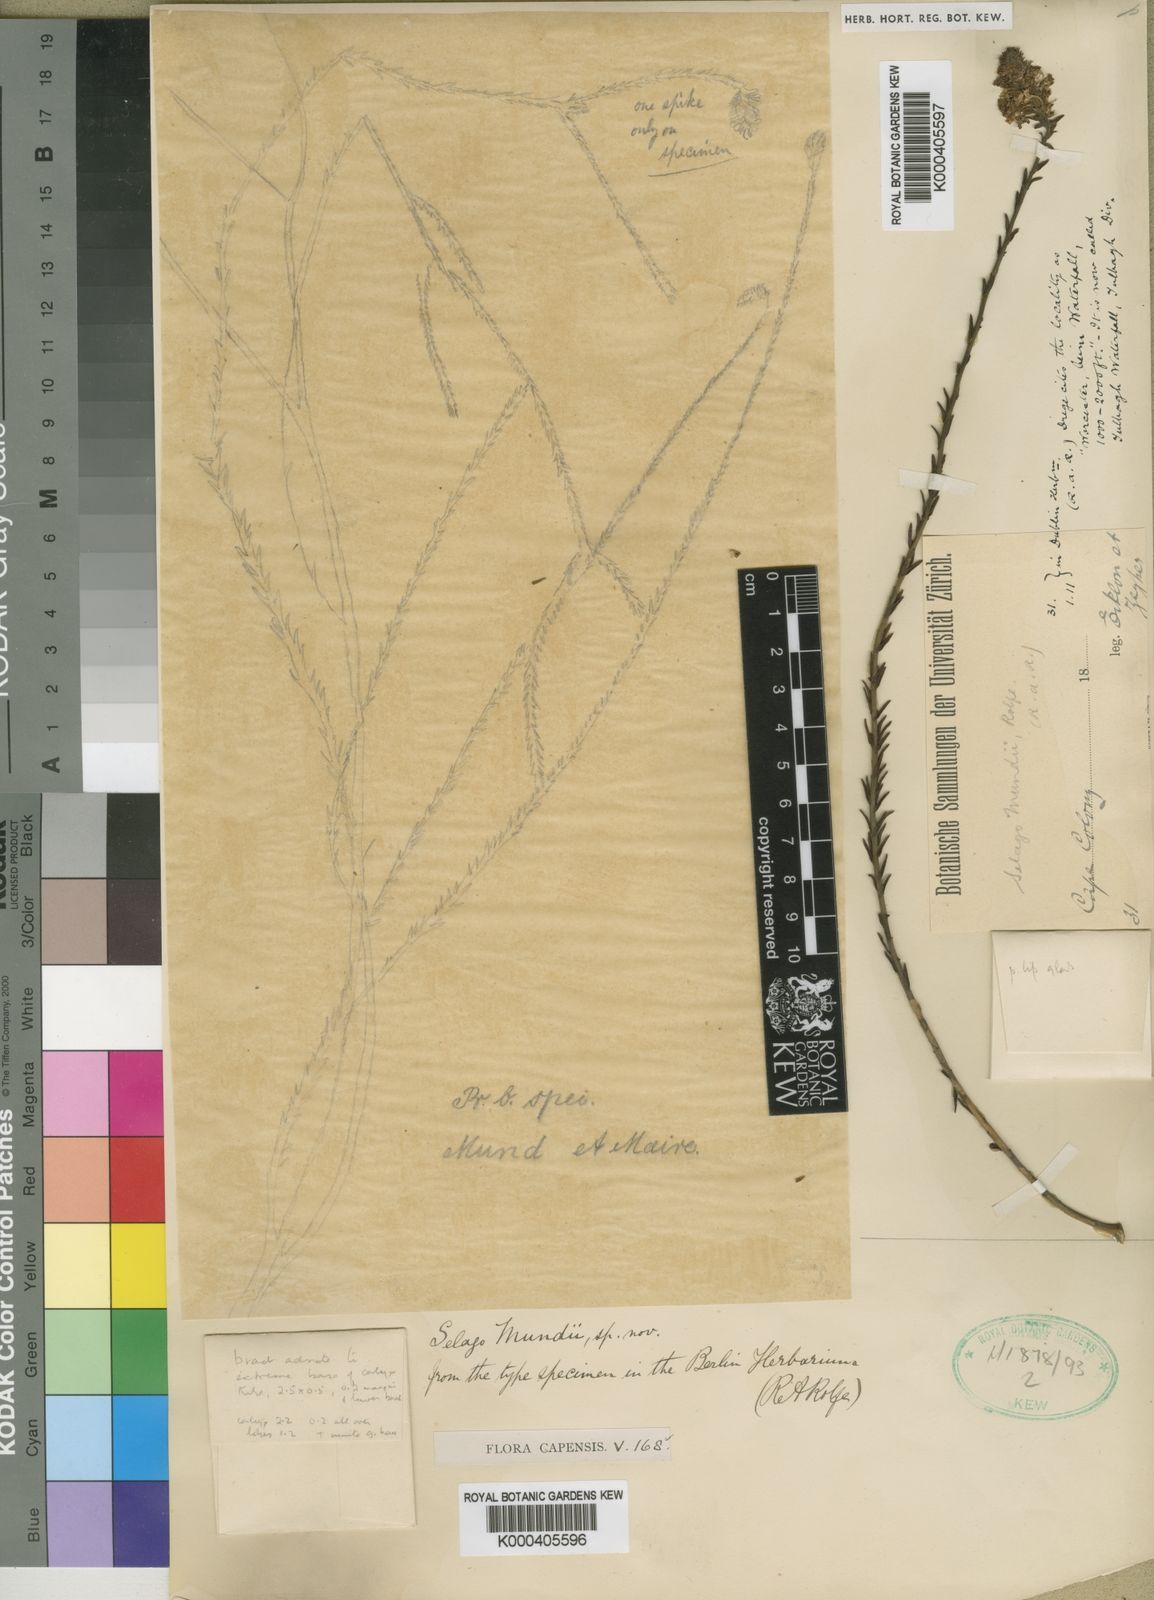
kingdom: Plantae
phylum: Tracheophyta
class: Magnoliopsida
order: Lamiales
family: Scrophulariaceae
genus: Selago
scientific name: Selago mundii
